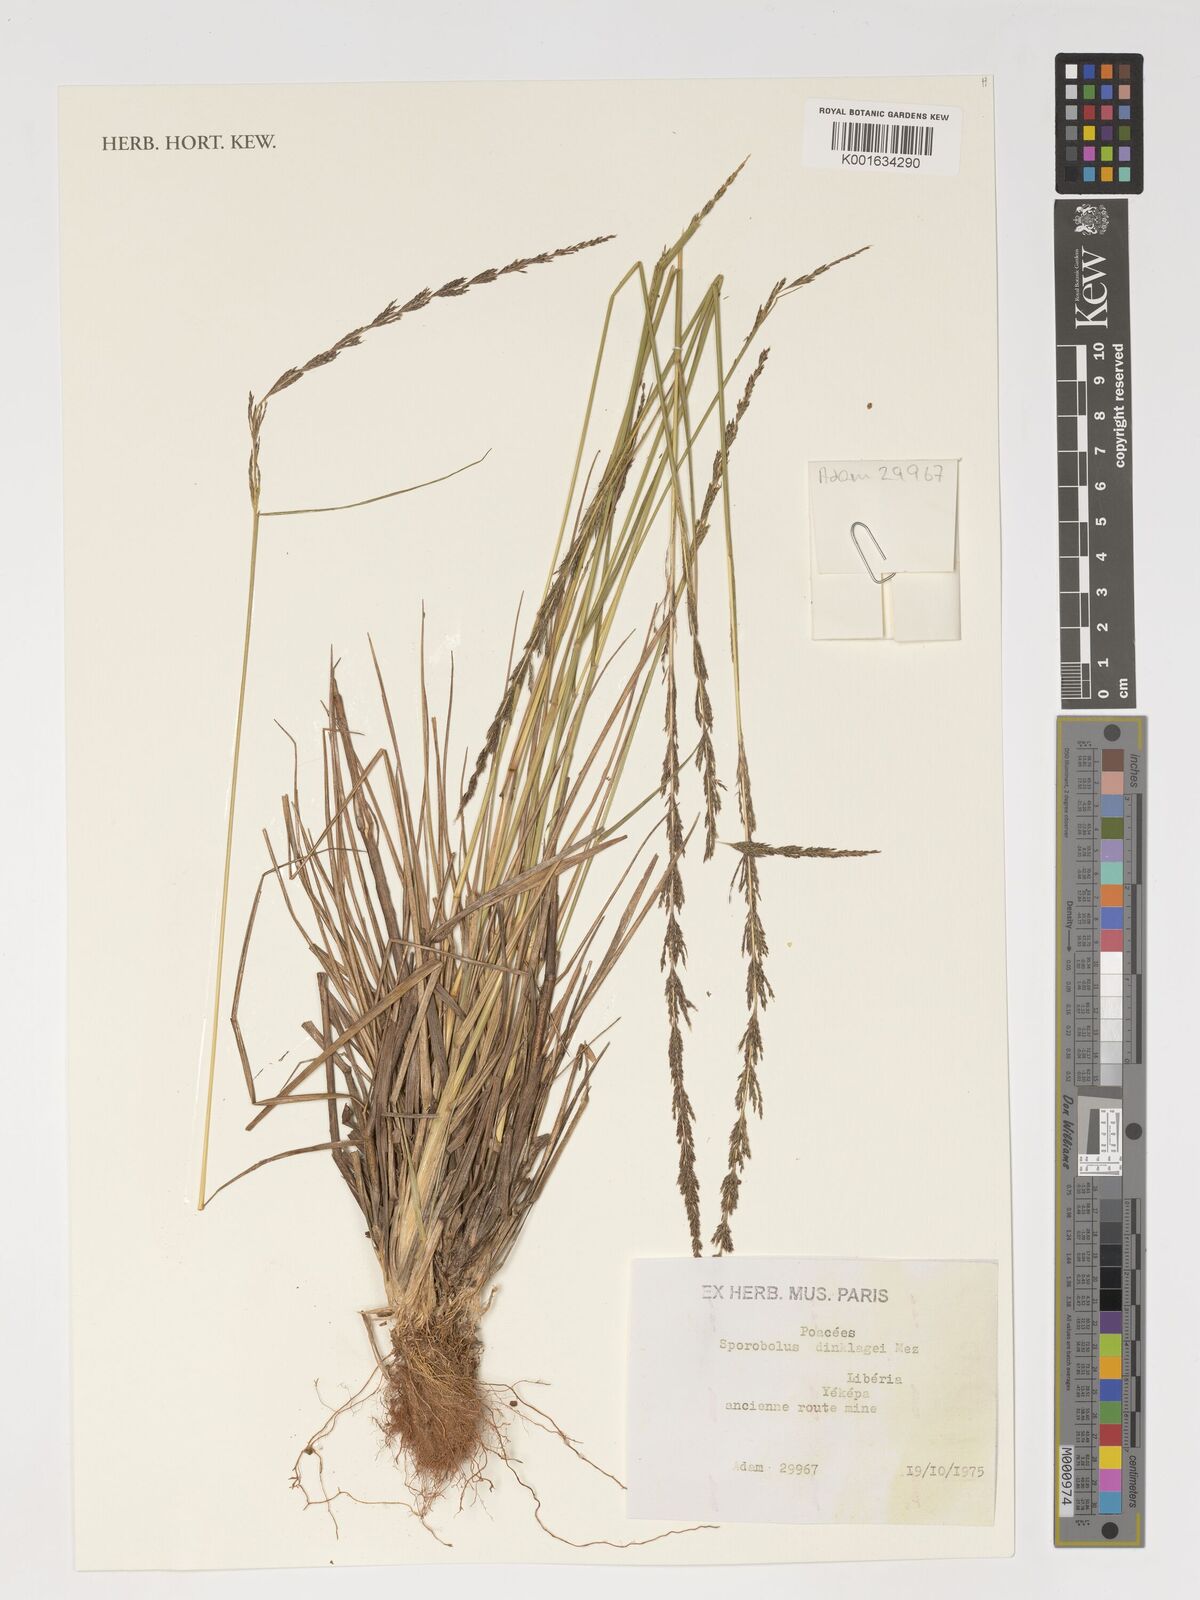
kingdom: Plantae
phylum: Tracheophyta
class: Liliopsida
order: Poales
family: Poaceae
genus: Sporobolus
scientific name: Sporobolus dinklagei
